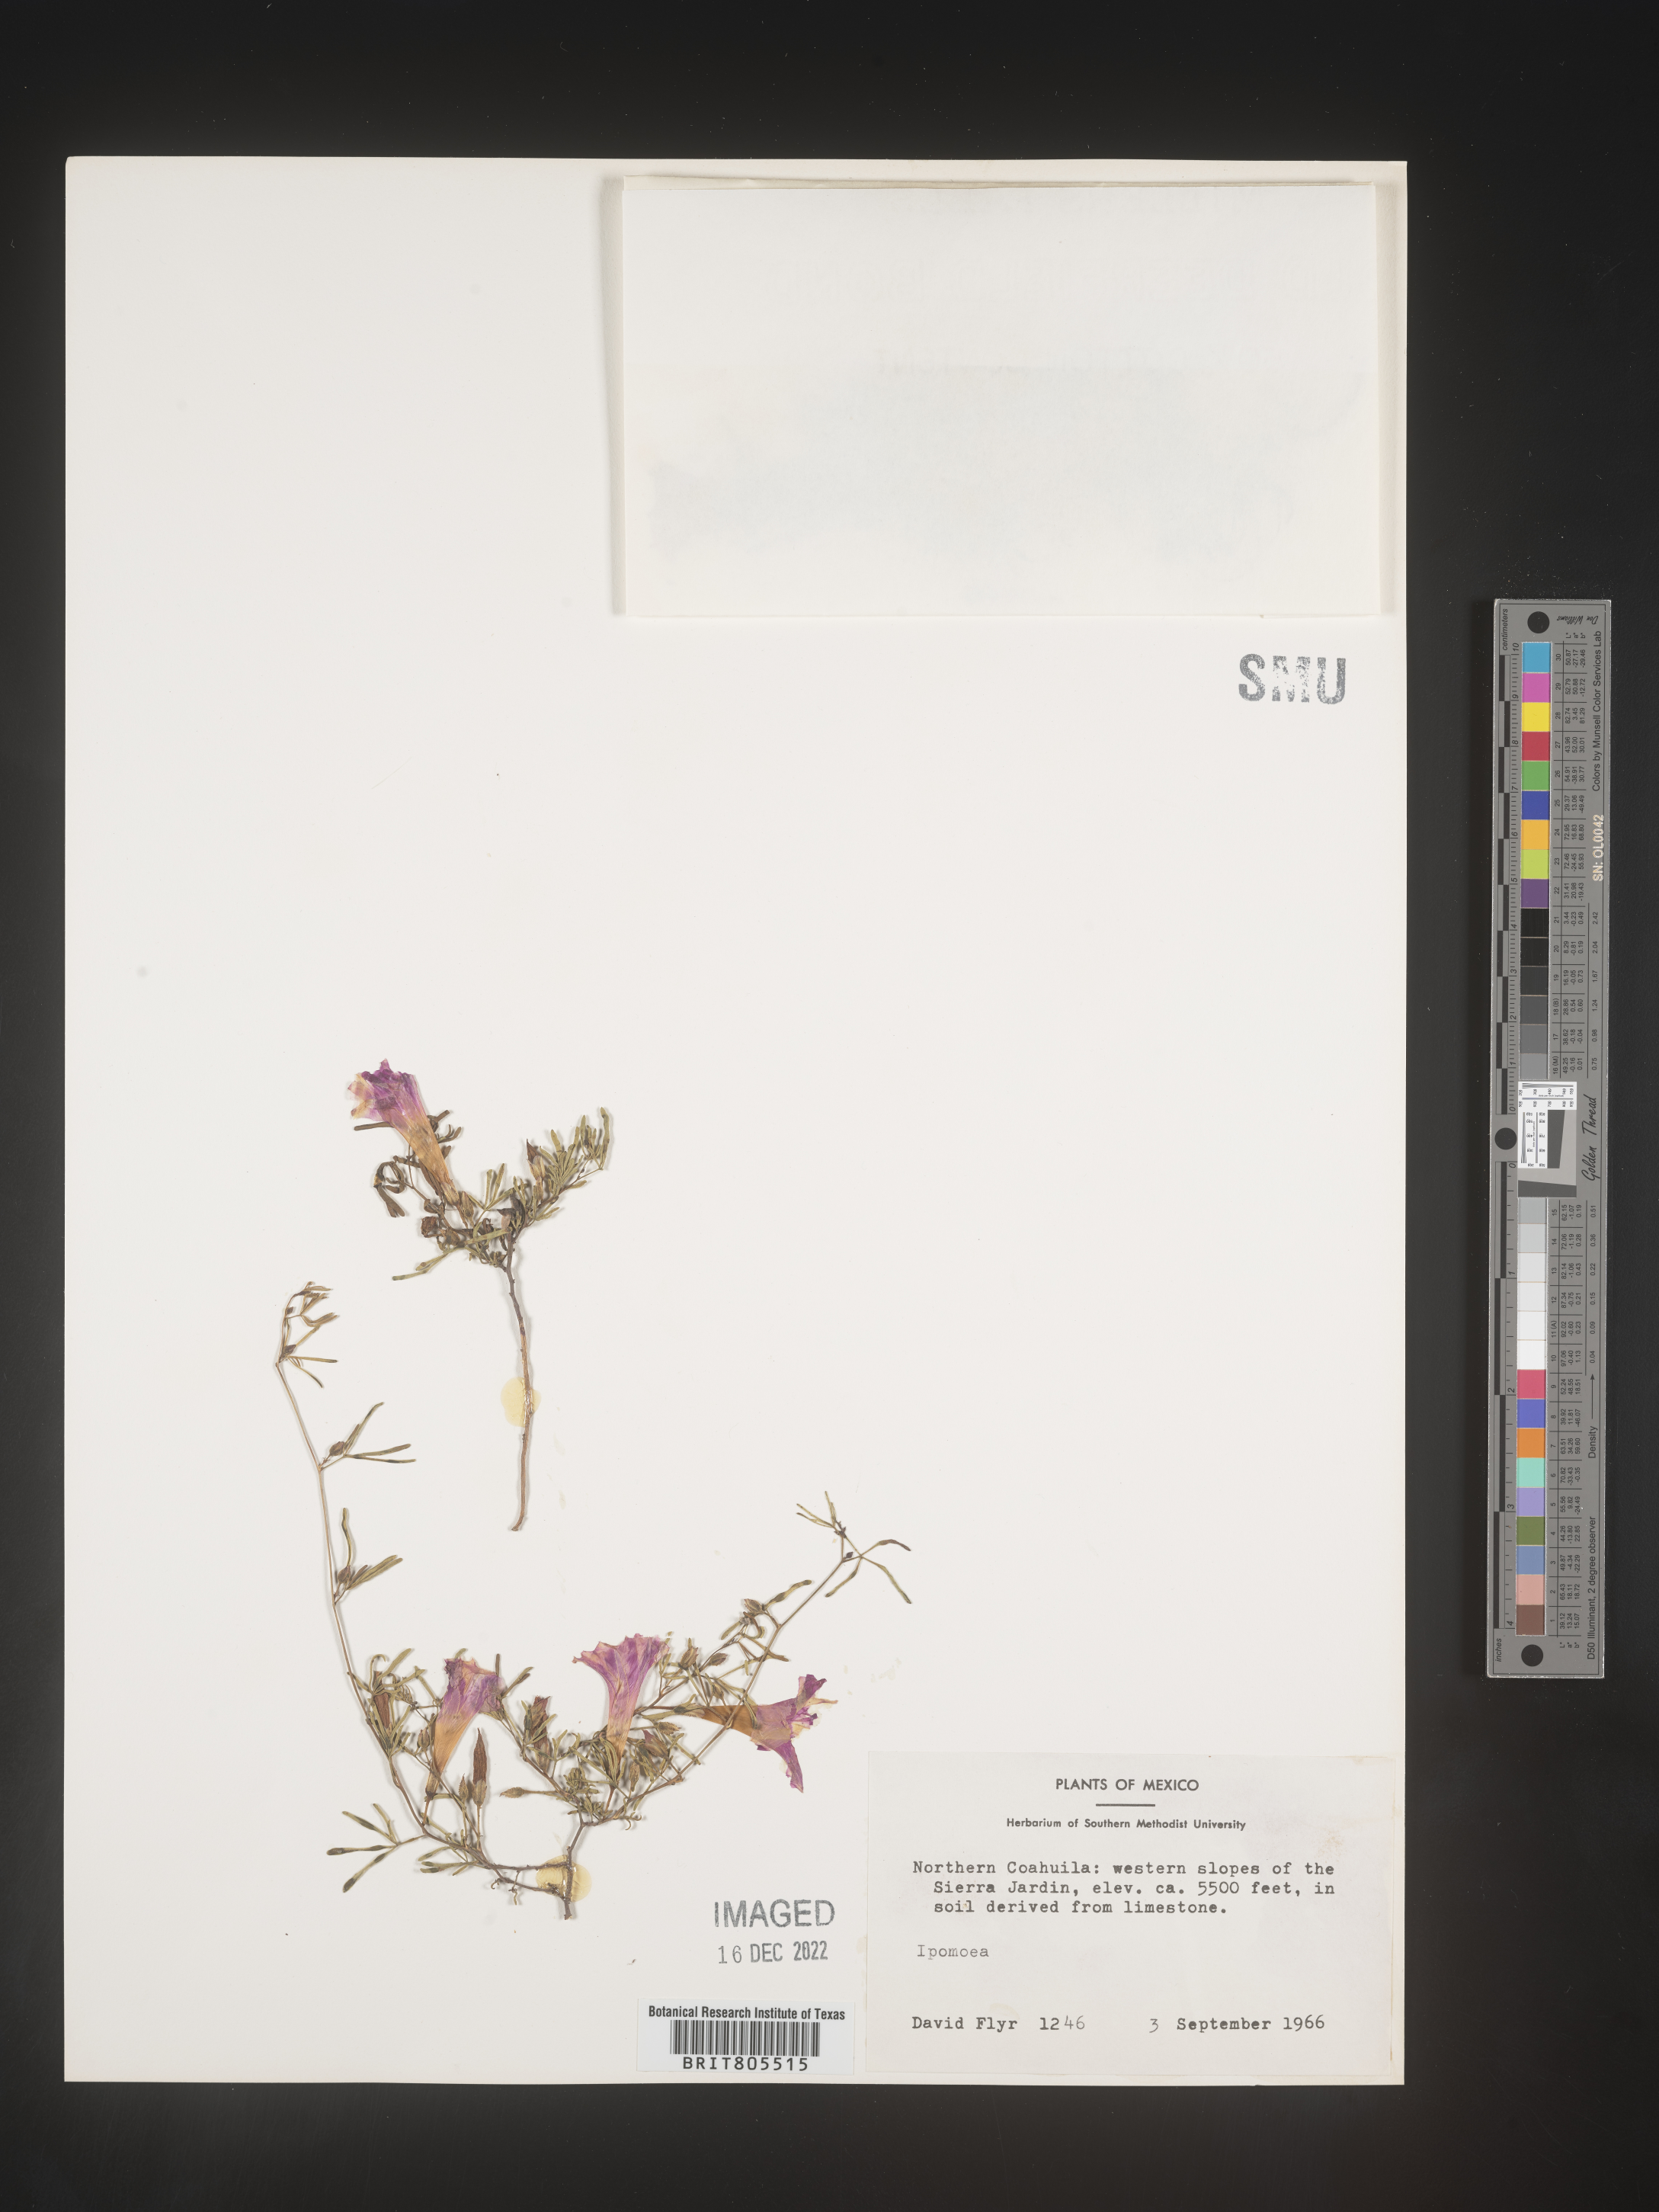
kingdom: Plantae
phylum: Tracheophyta
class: Magnoliopsida
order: Solanales
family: Convolvulaceae
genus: Ipomoea
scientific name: Ipomoea
